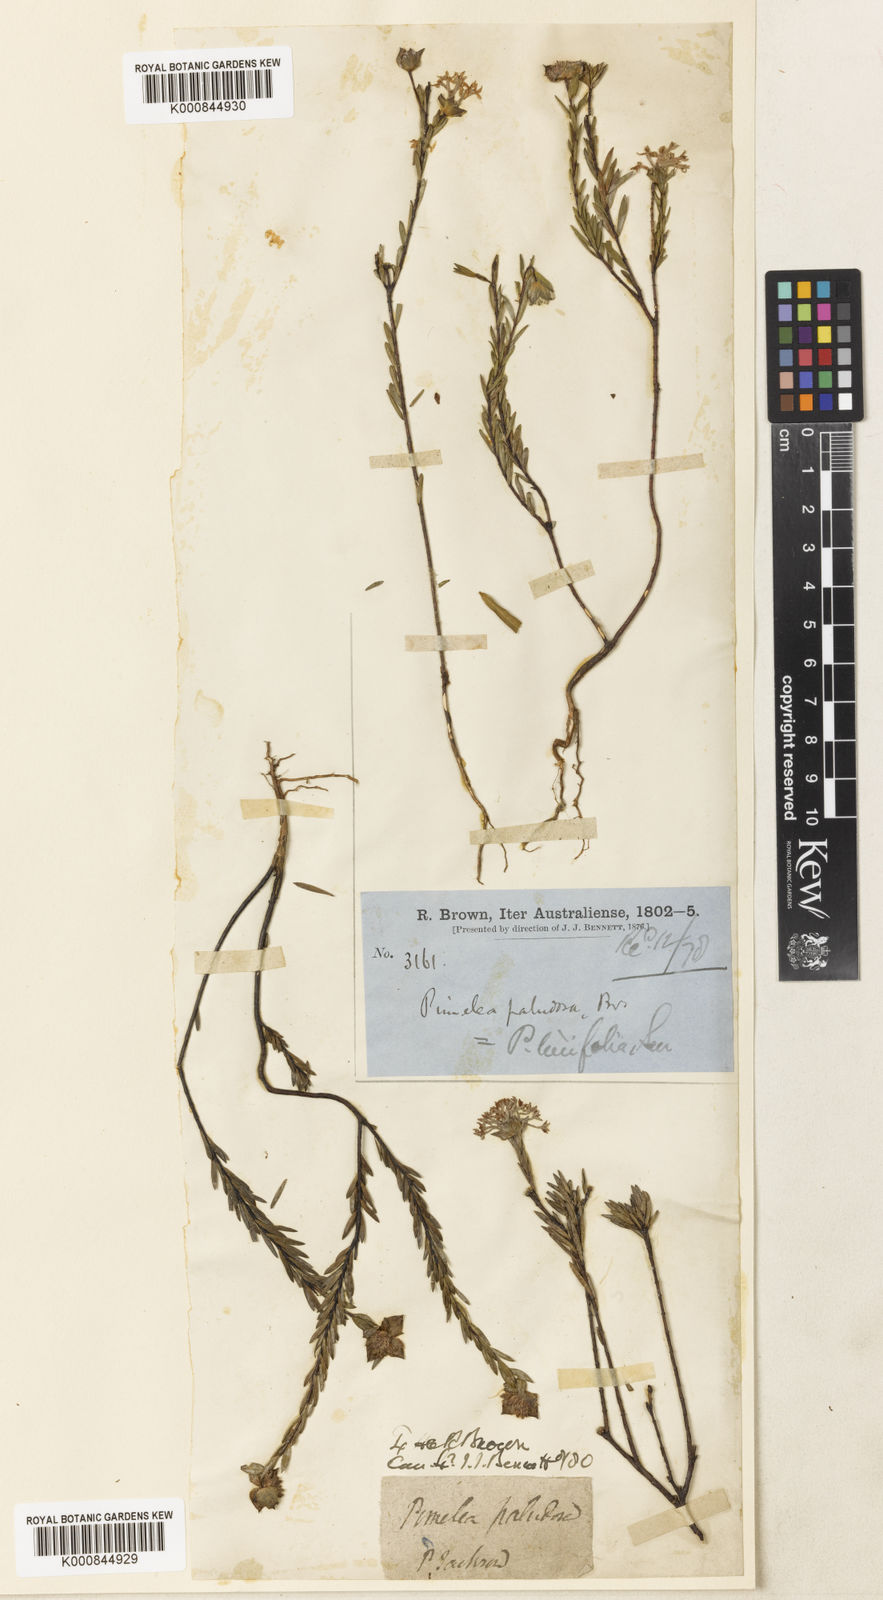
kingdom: Plantae
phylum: Tracheophyta
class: Magnoliopsida
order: Malvales
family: Thymelaeaceae
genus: Pimelea
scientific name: Pimelea linifolia
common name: Queen-of-the-bush
